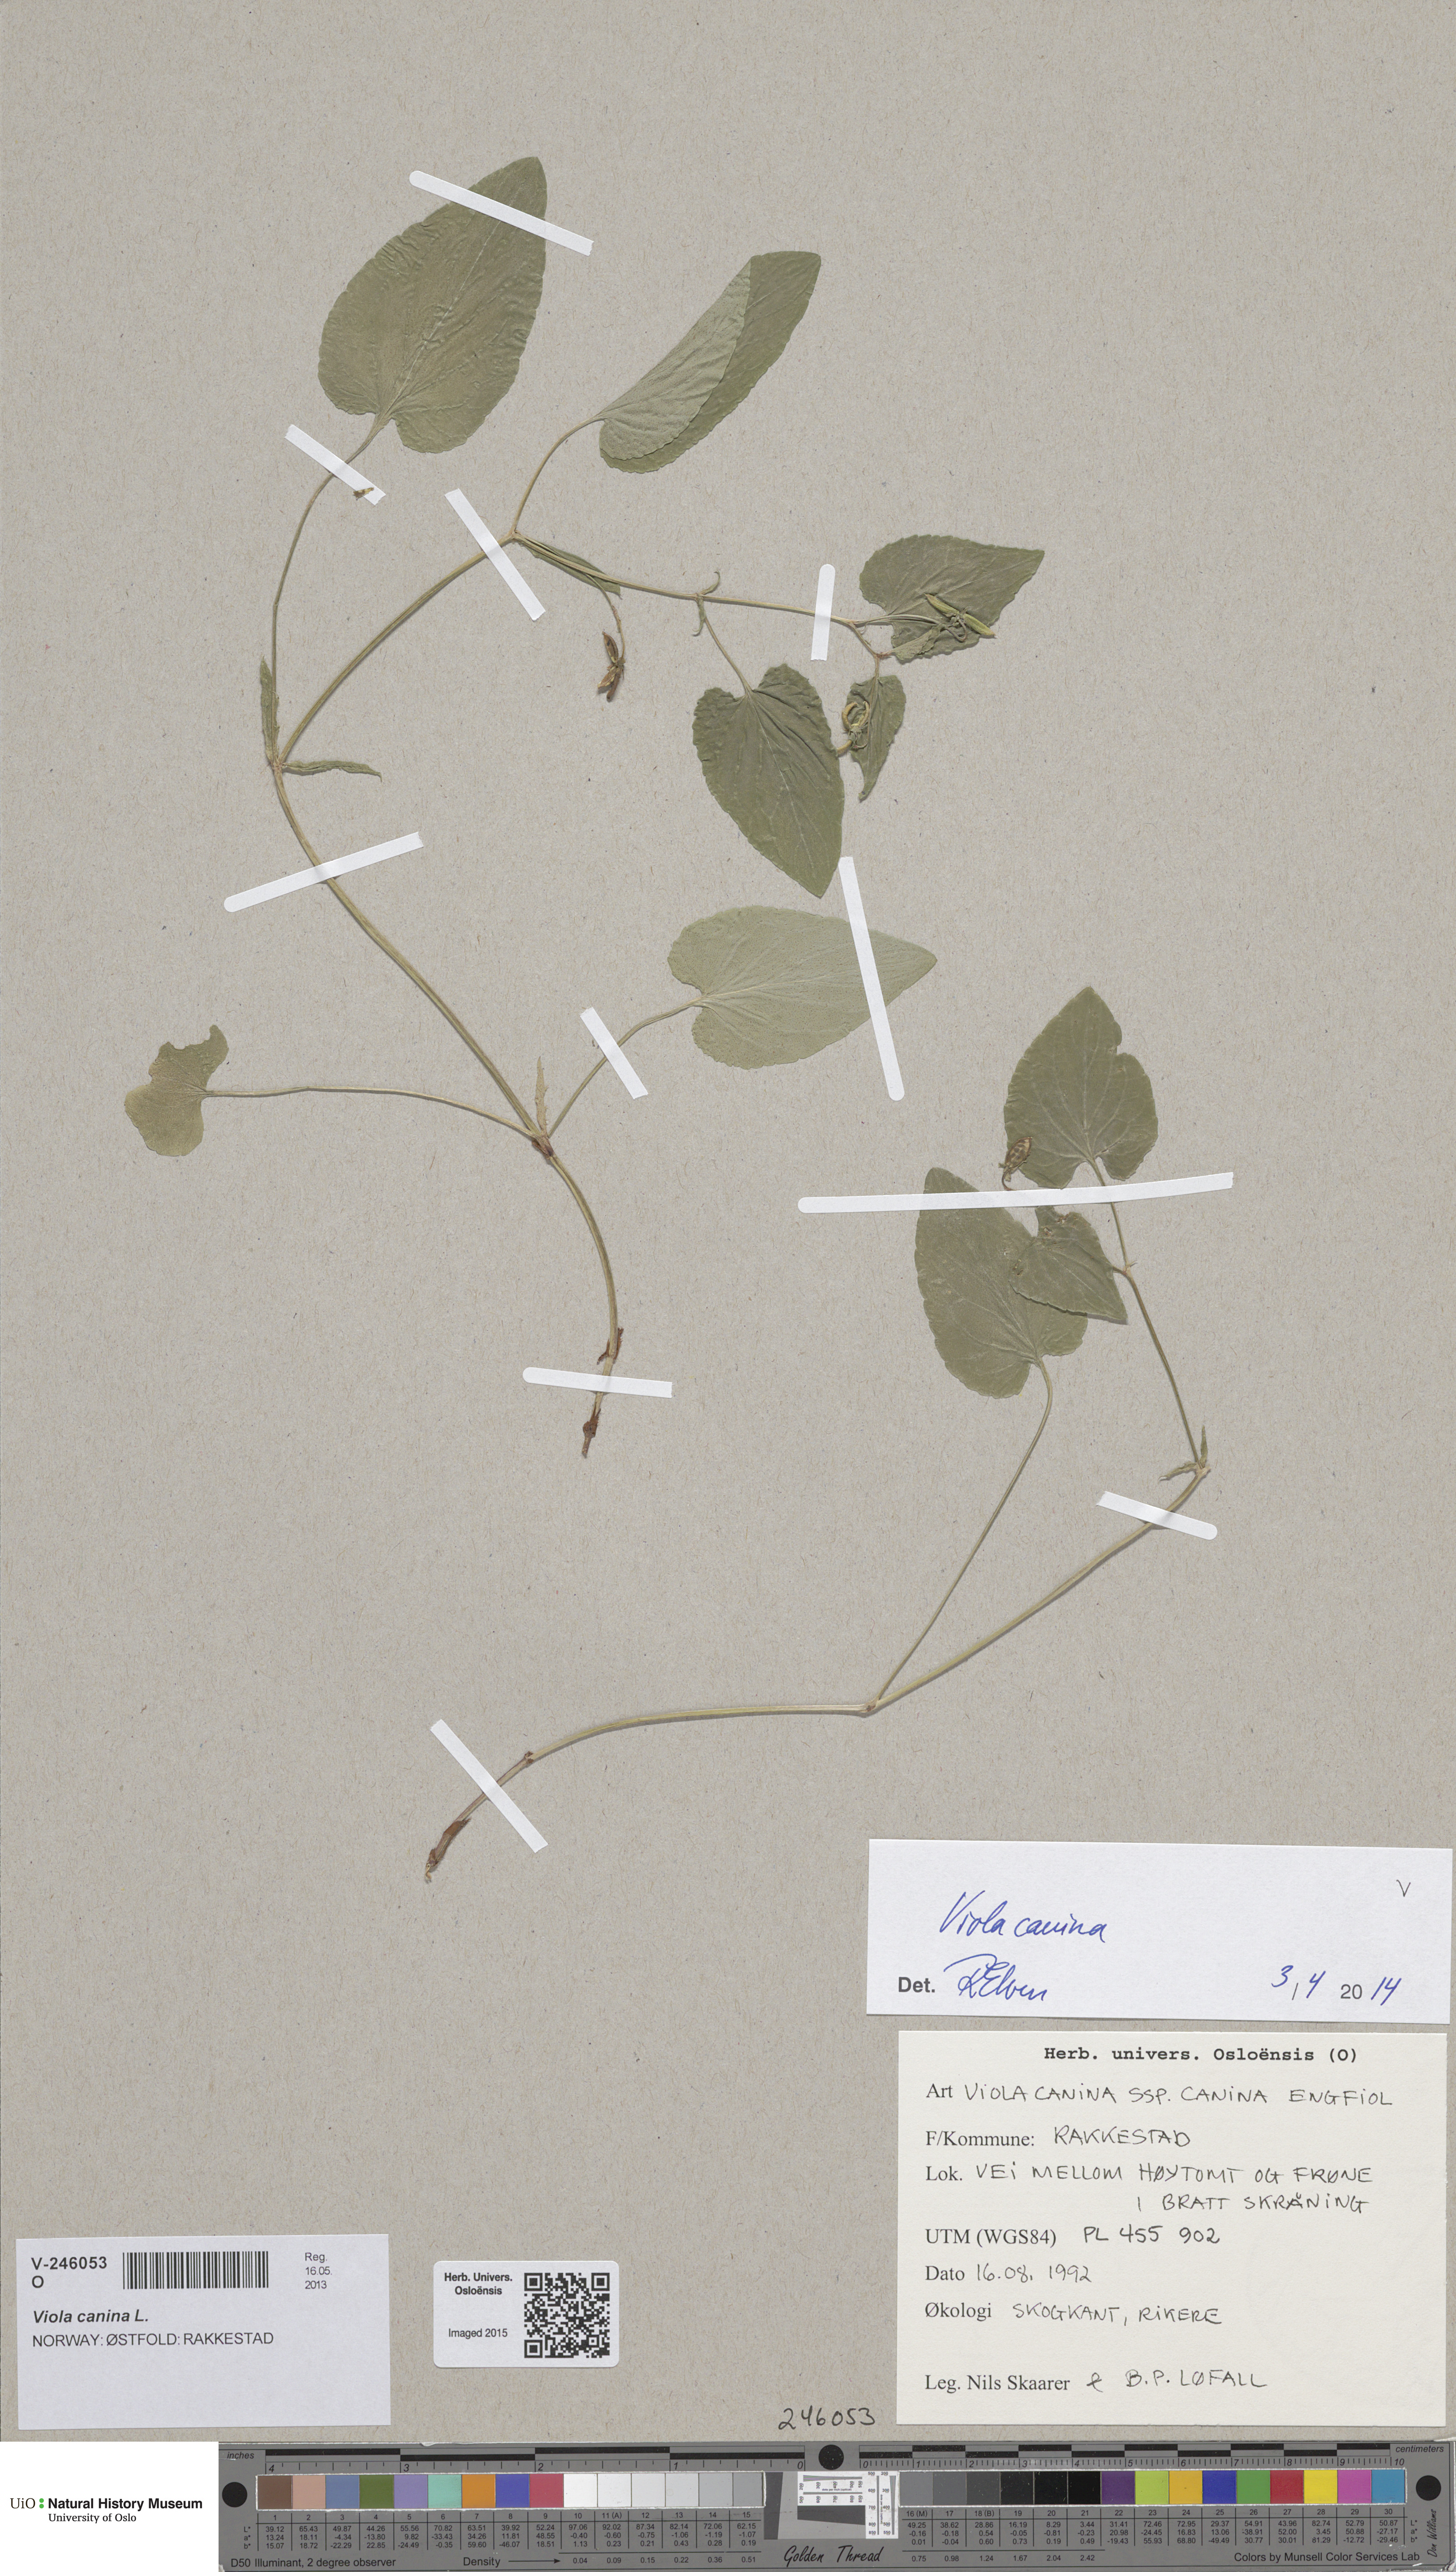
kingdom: Plantae
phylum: Tracheophyta
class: Magnoliopsida
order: Malpighiales
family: Violaceae
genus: Viola
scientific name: Viola canina
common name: Heath dog-violet
